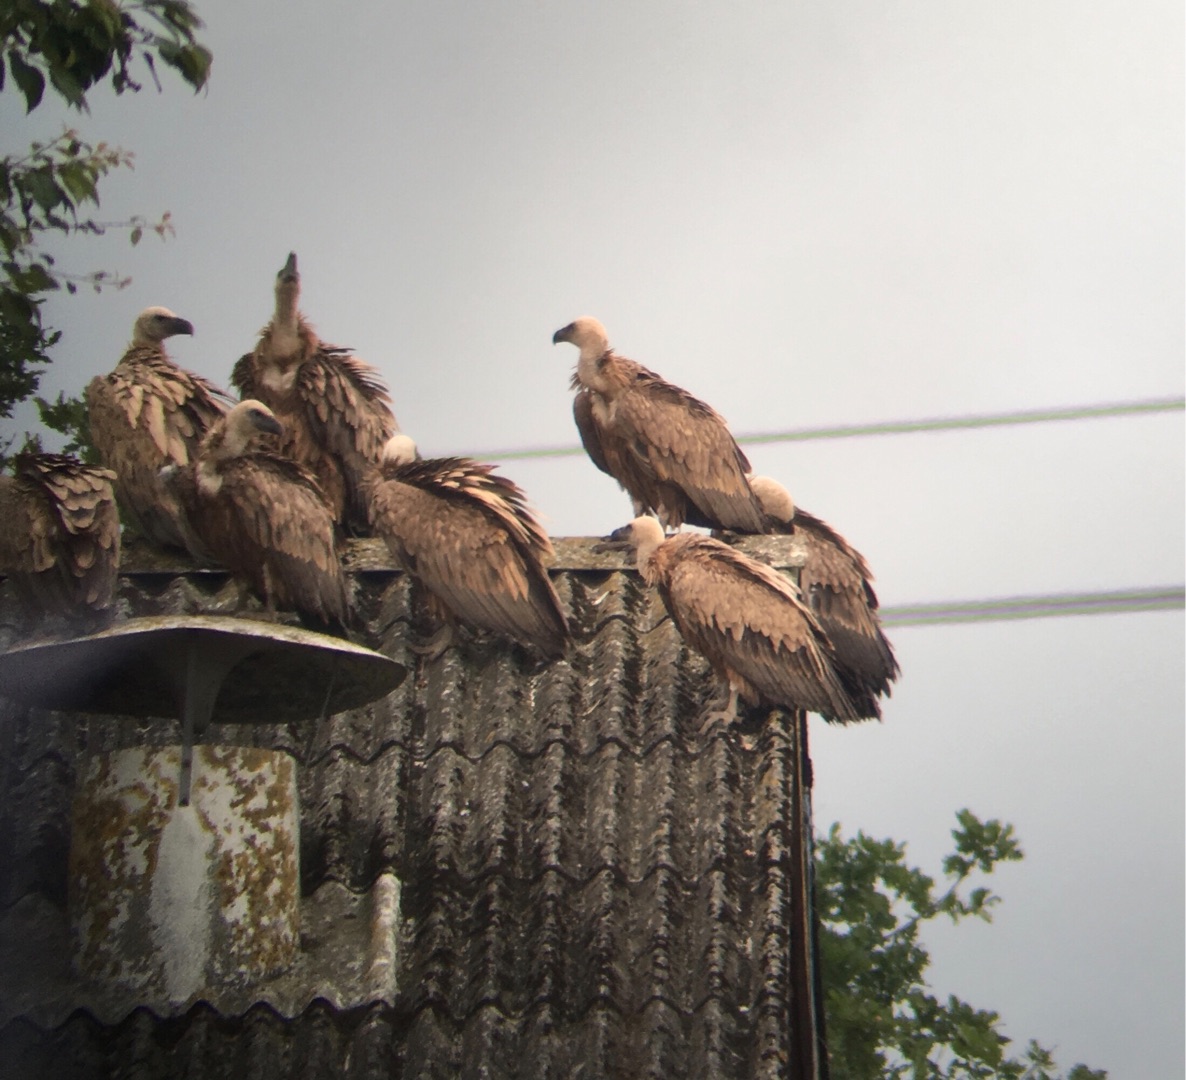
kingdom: Animalia
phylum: Chordata
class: Aves
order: Accipitriformes
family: Accipitridae
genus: Gyps
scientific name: Gyps fulvus
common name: Gåsegrib
